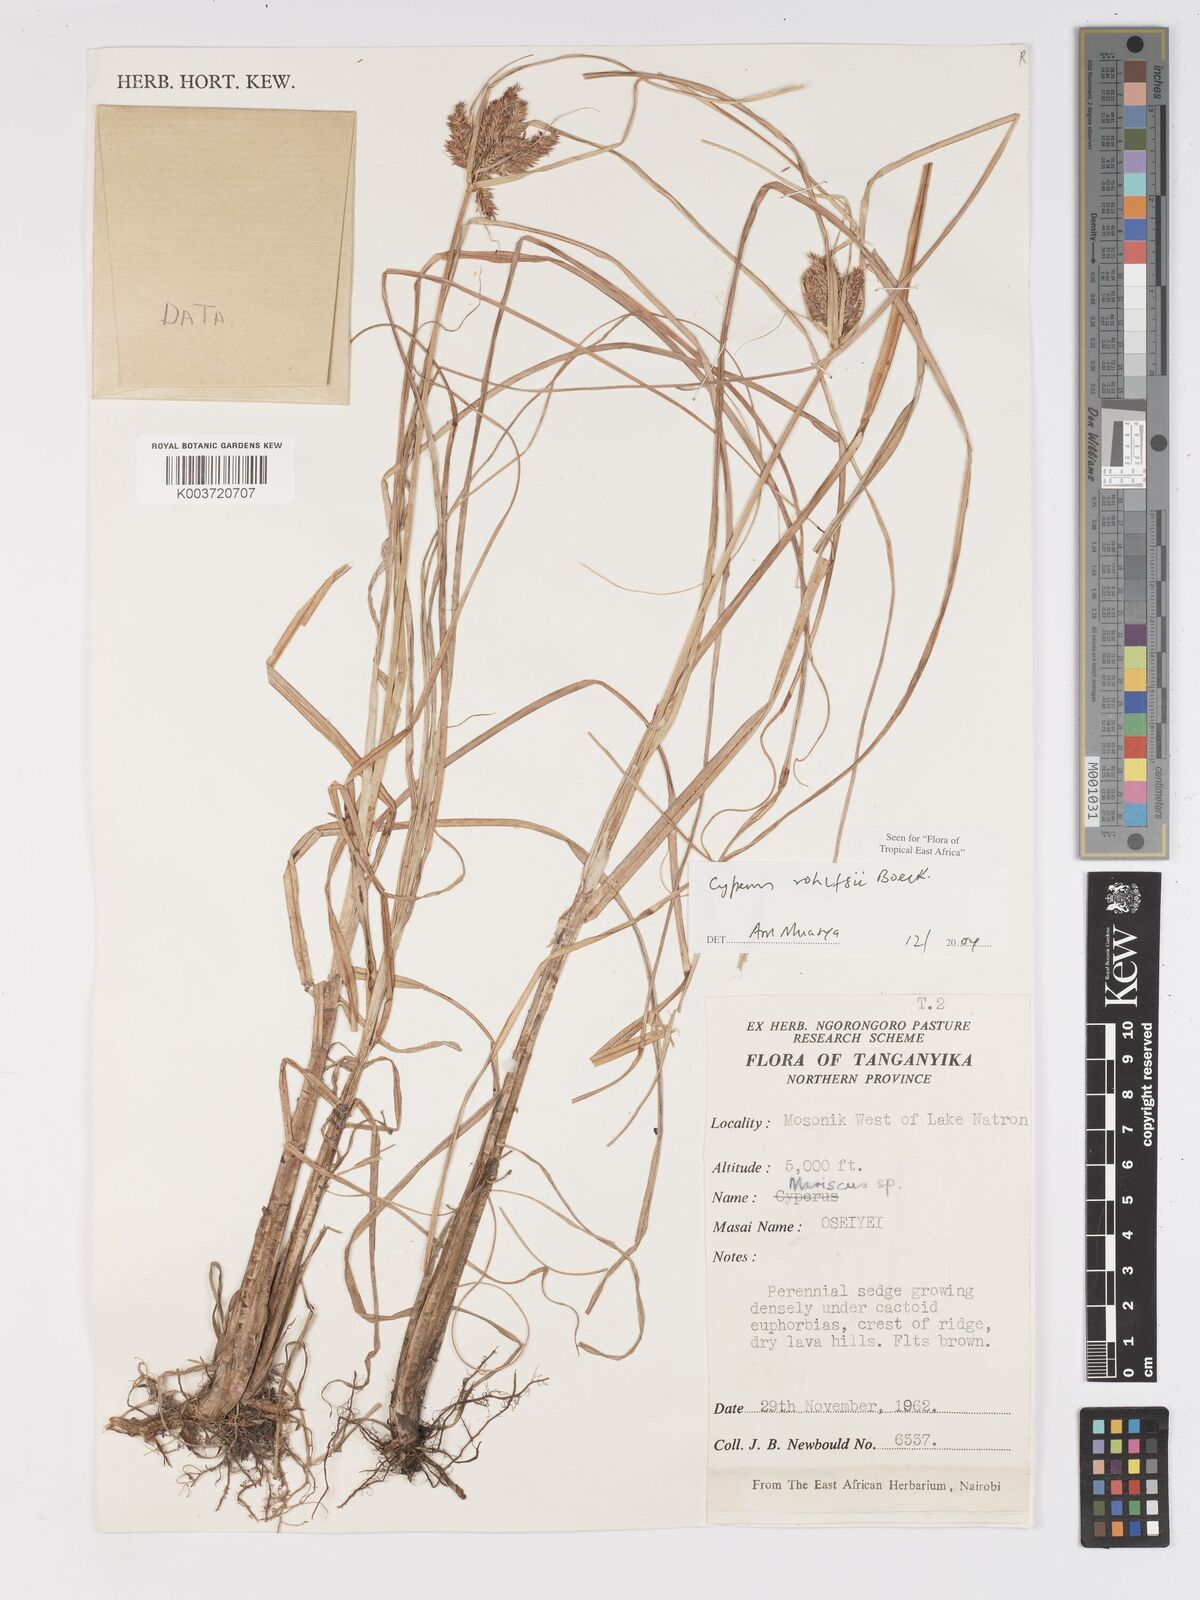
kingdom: Plantae
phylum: Tracheophyta
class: Liliopsida
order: Poales
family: Cyperaceae
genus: Cyperus
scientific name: Cyperus rohlfsii
